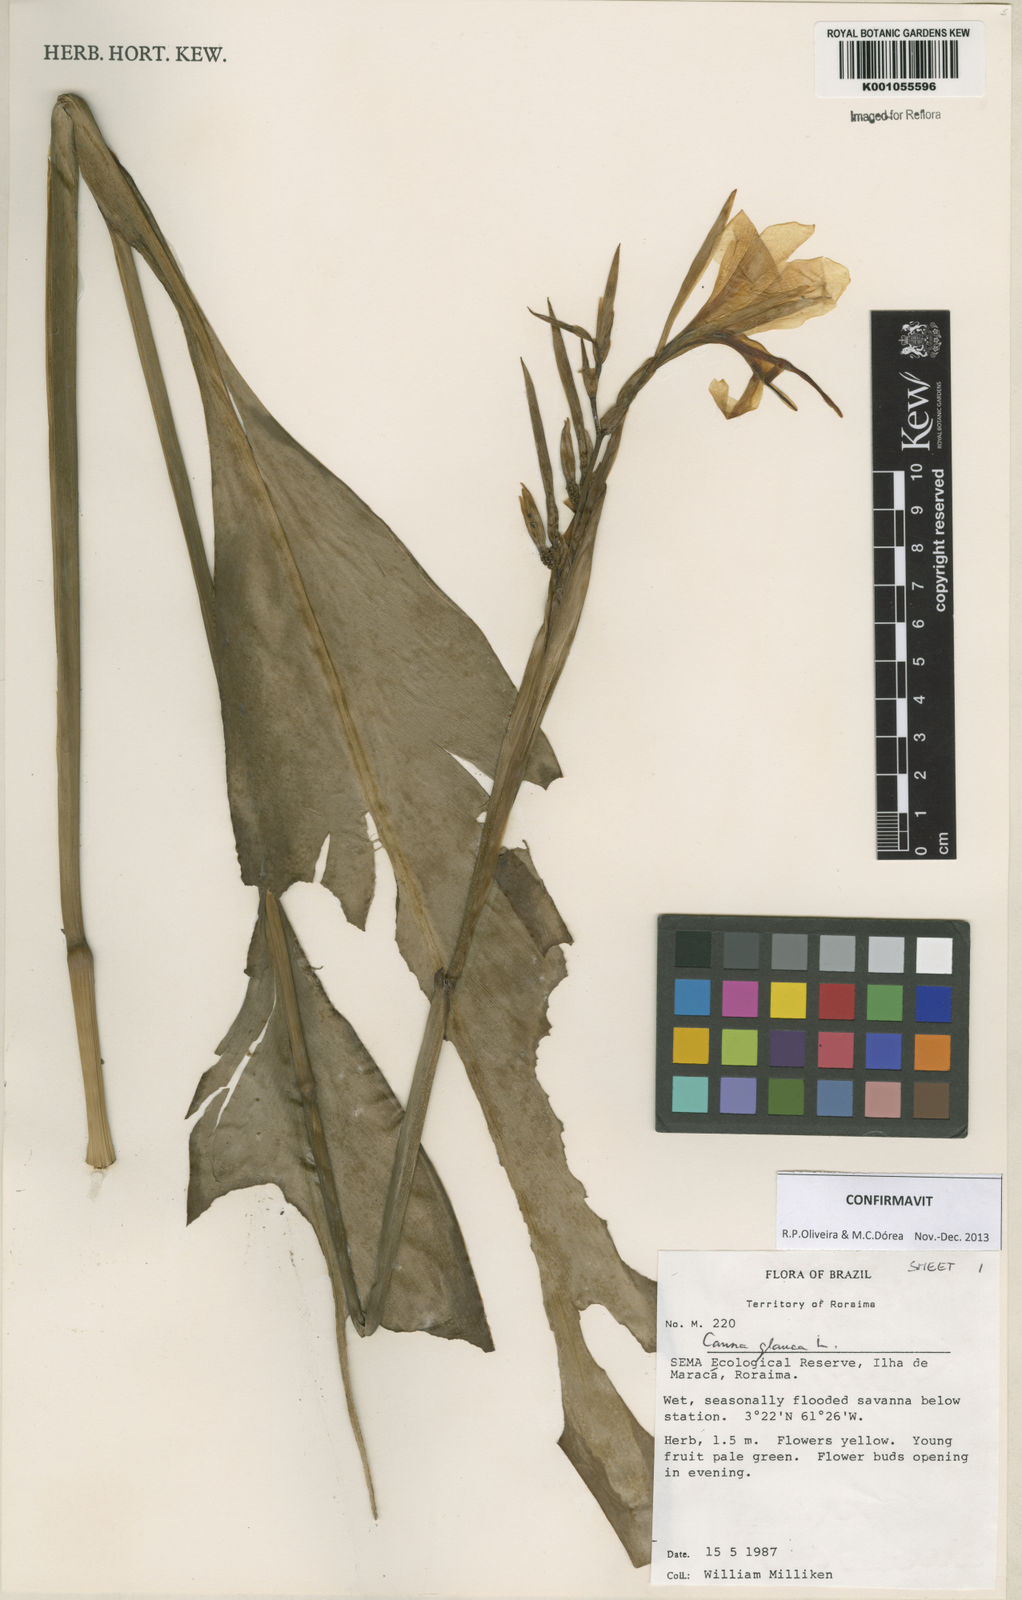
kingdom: Plantae
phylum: Tracheophyta
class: Liliopsida
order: Zingiberales
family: Cannaceae
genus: Canna
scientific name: Canna glauca
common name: Louisiana canna
